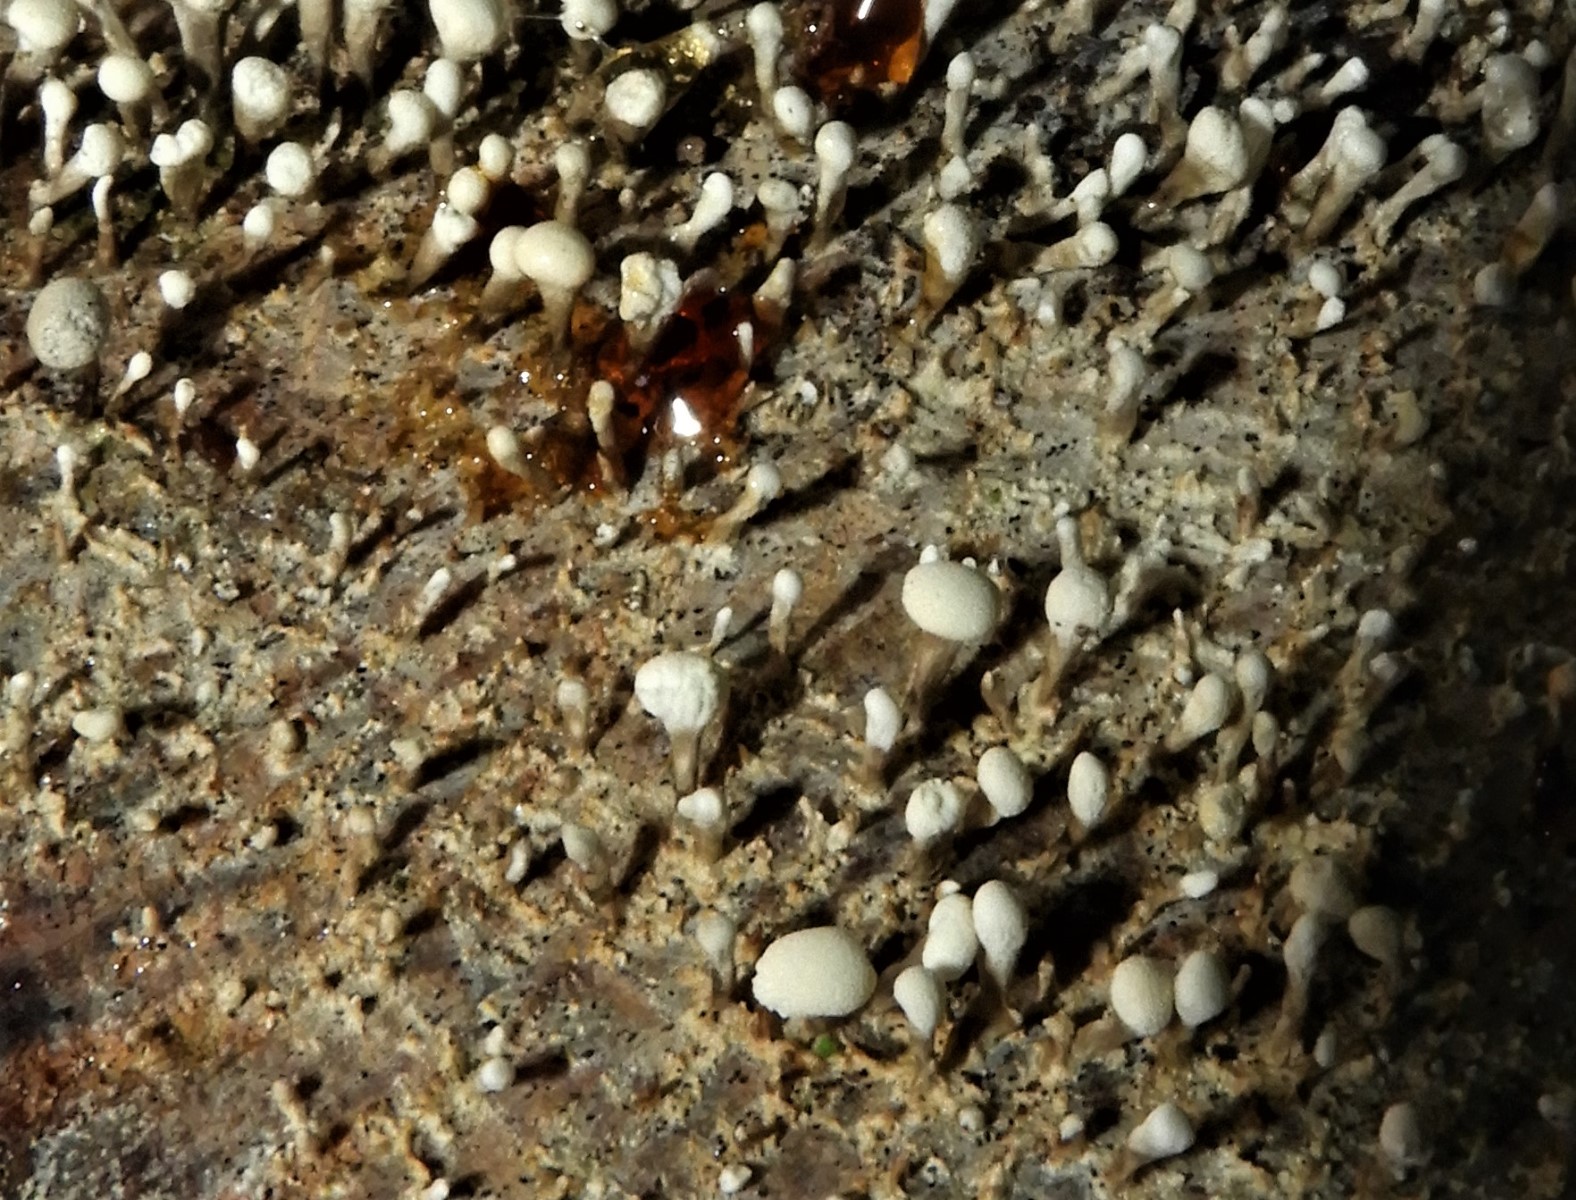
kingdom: Fungi
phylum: Basidiomycota
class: Atractiellomycetes
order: Atractiellales
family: Phleogenaceae
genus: Phleogena
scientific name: Phleogena faginea
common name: pudderkølle
